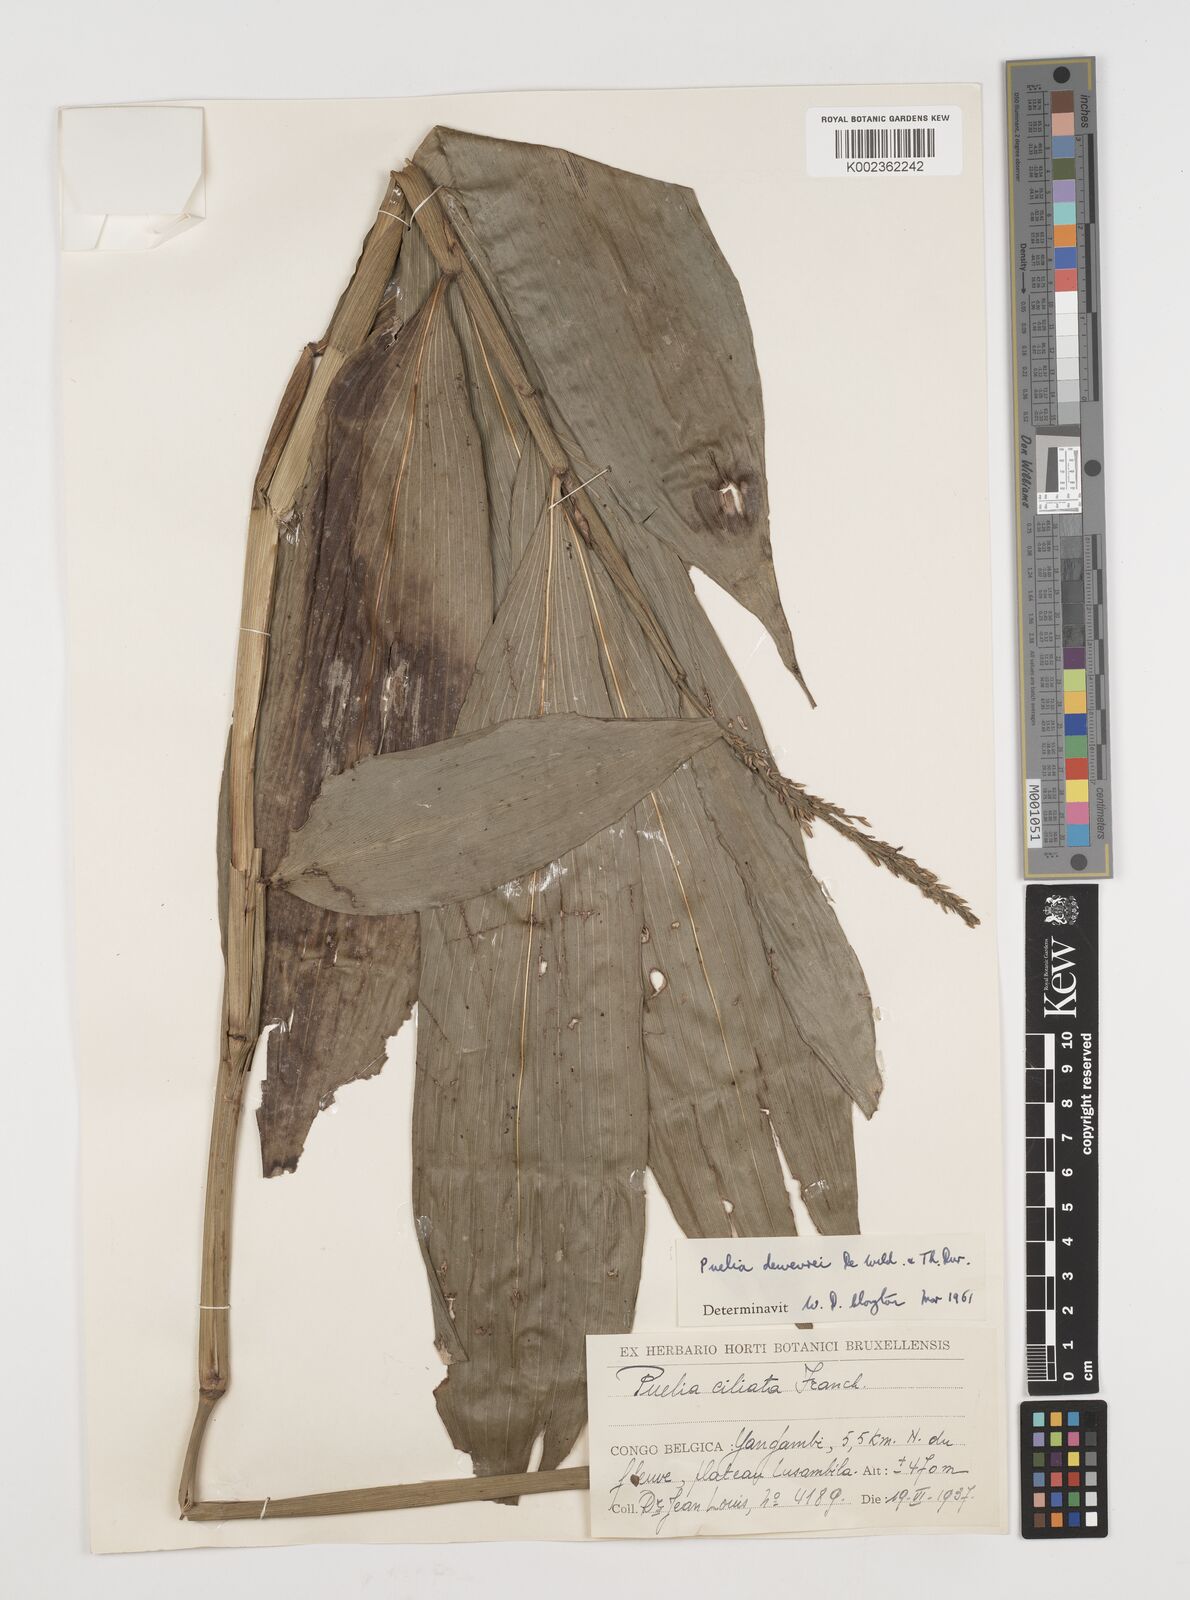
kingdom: Plantae
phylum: Tracheophyta
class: Liliopsida
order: Poales
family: Poaceae
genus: Puelia
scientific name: Puelia dewevrei
